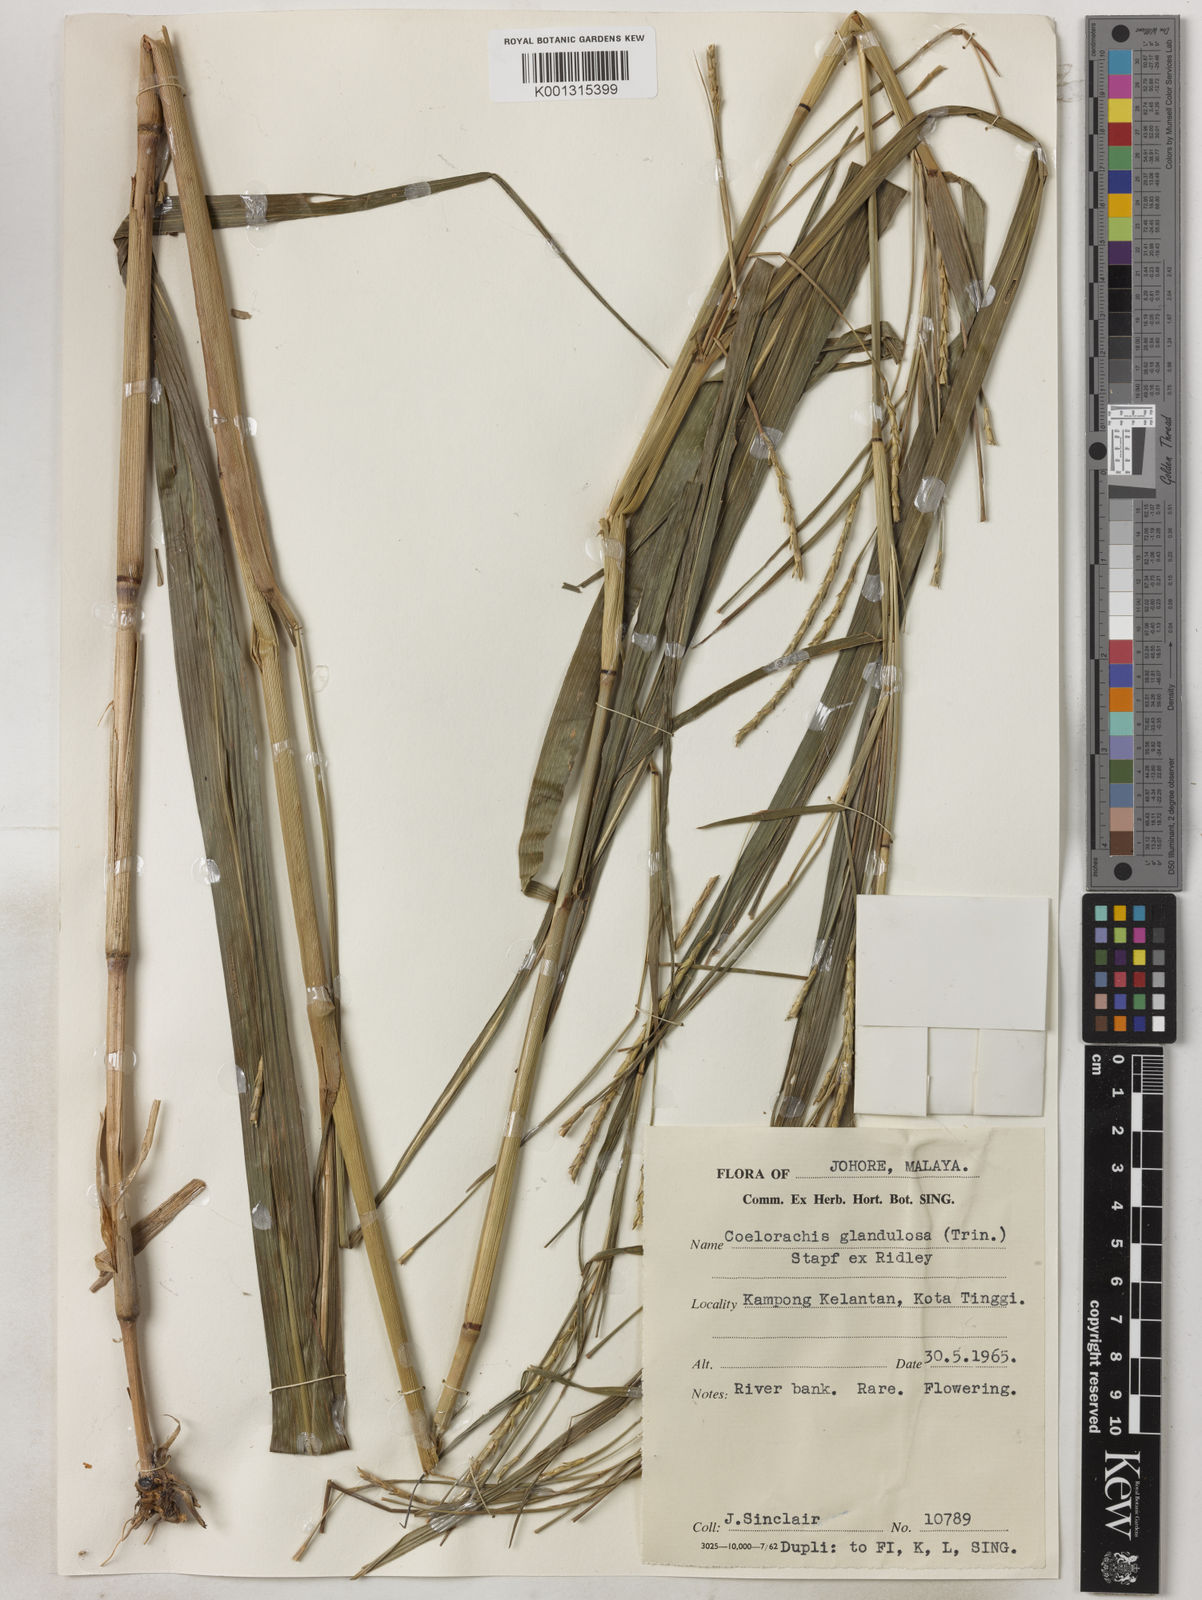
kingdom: Plantae
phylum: Tracheophyta
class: Liliopsida
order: Poales
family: Poaceae
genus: Rottboellia
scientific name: Rottboellia glandulosa
